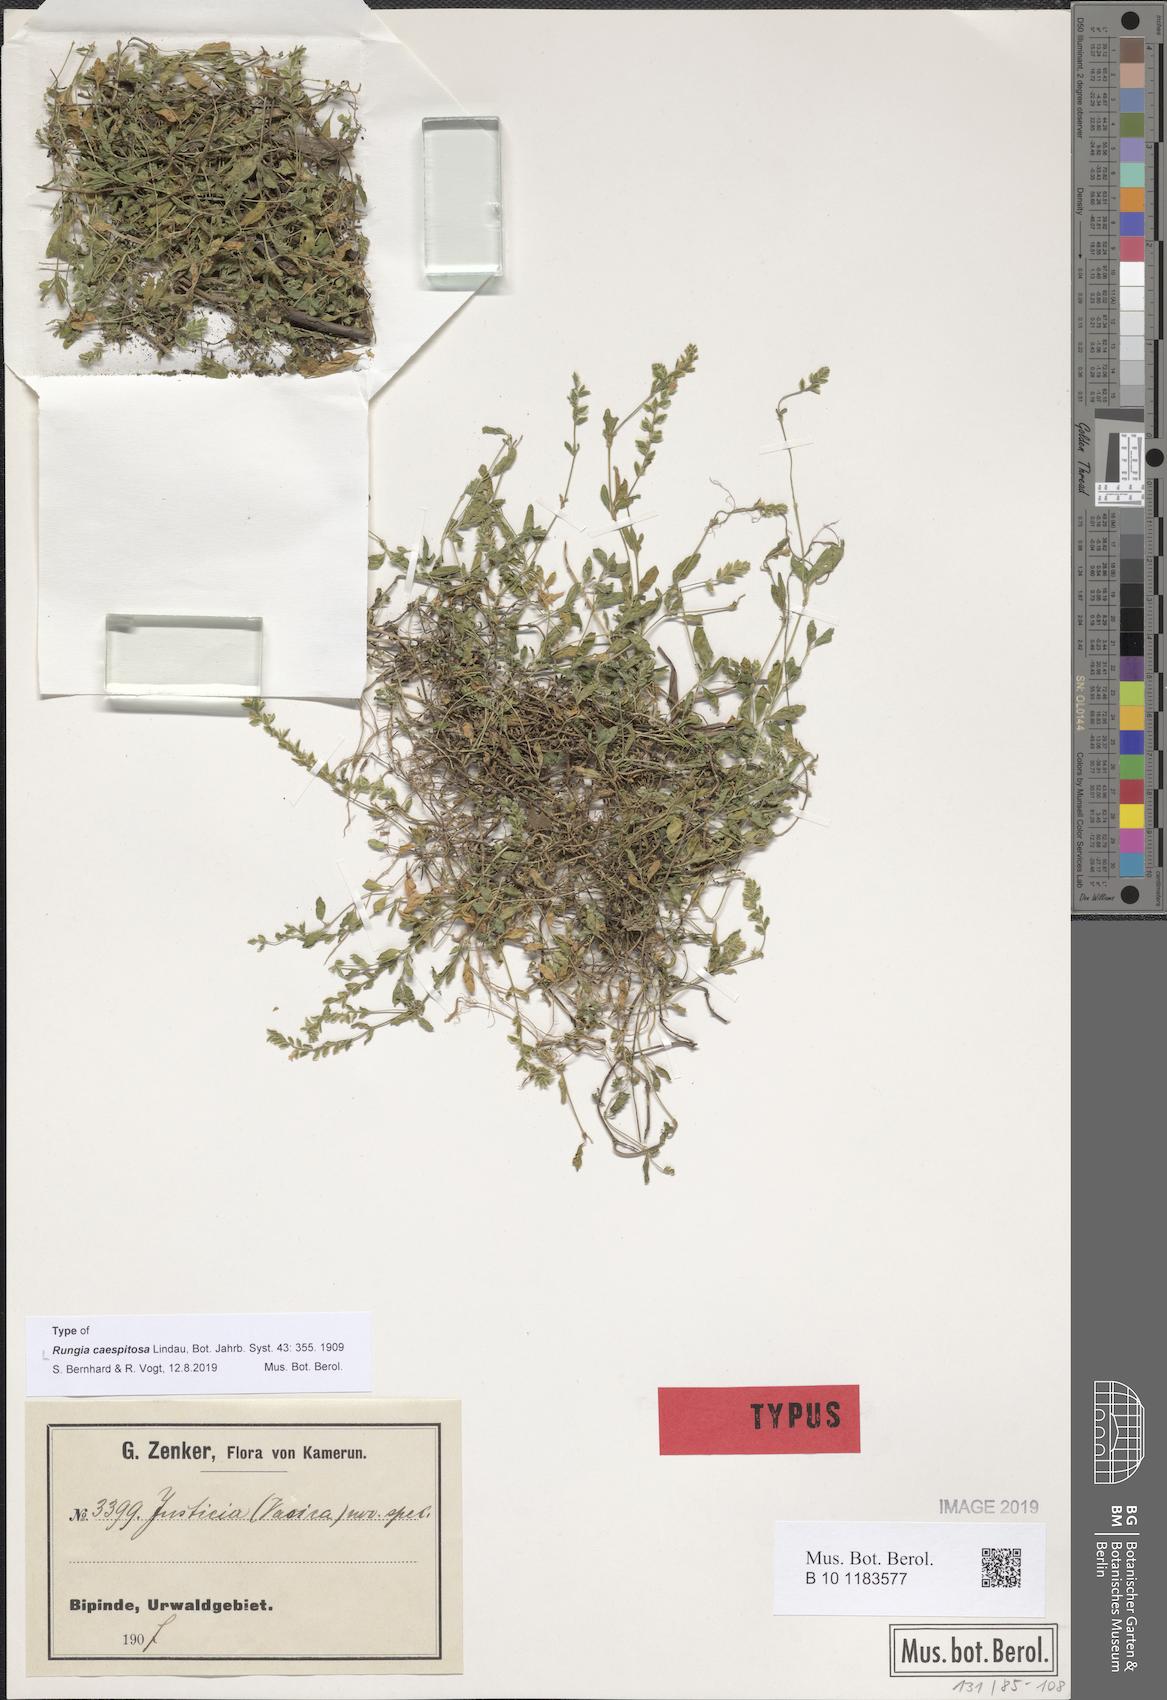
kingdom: Plantae
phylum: Tracheophyta
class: Magnoliopsida
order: Lamiales
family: Acanthaceae
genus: Rungia
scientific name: Rungia caespitosa
